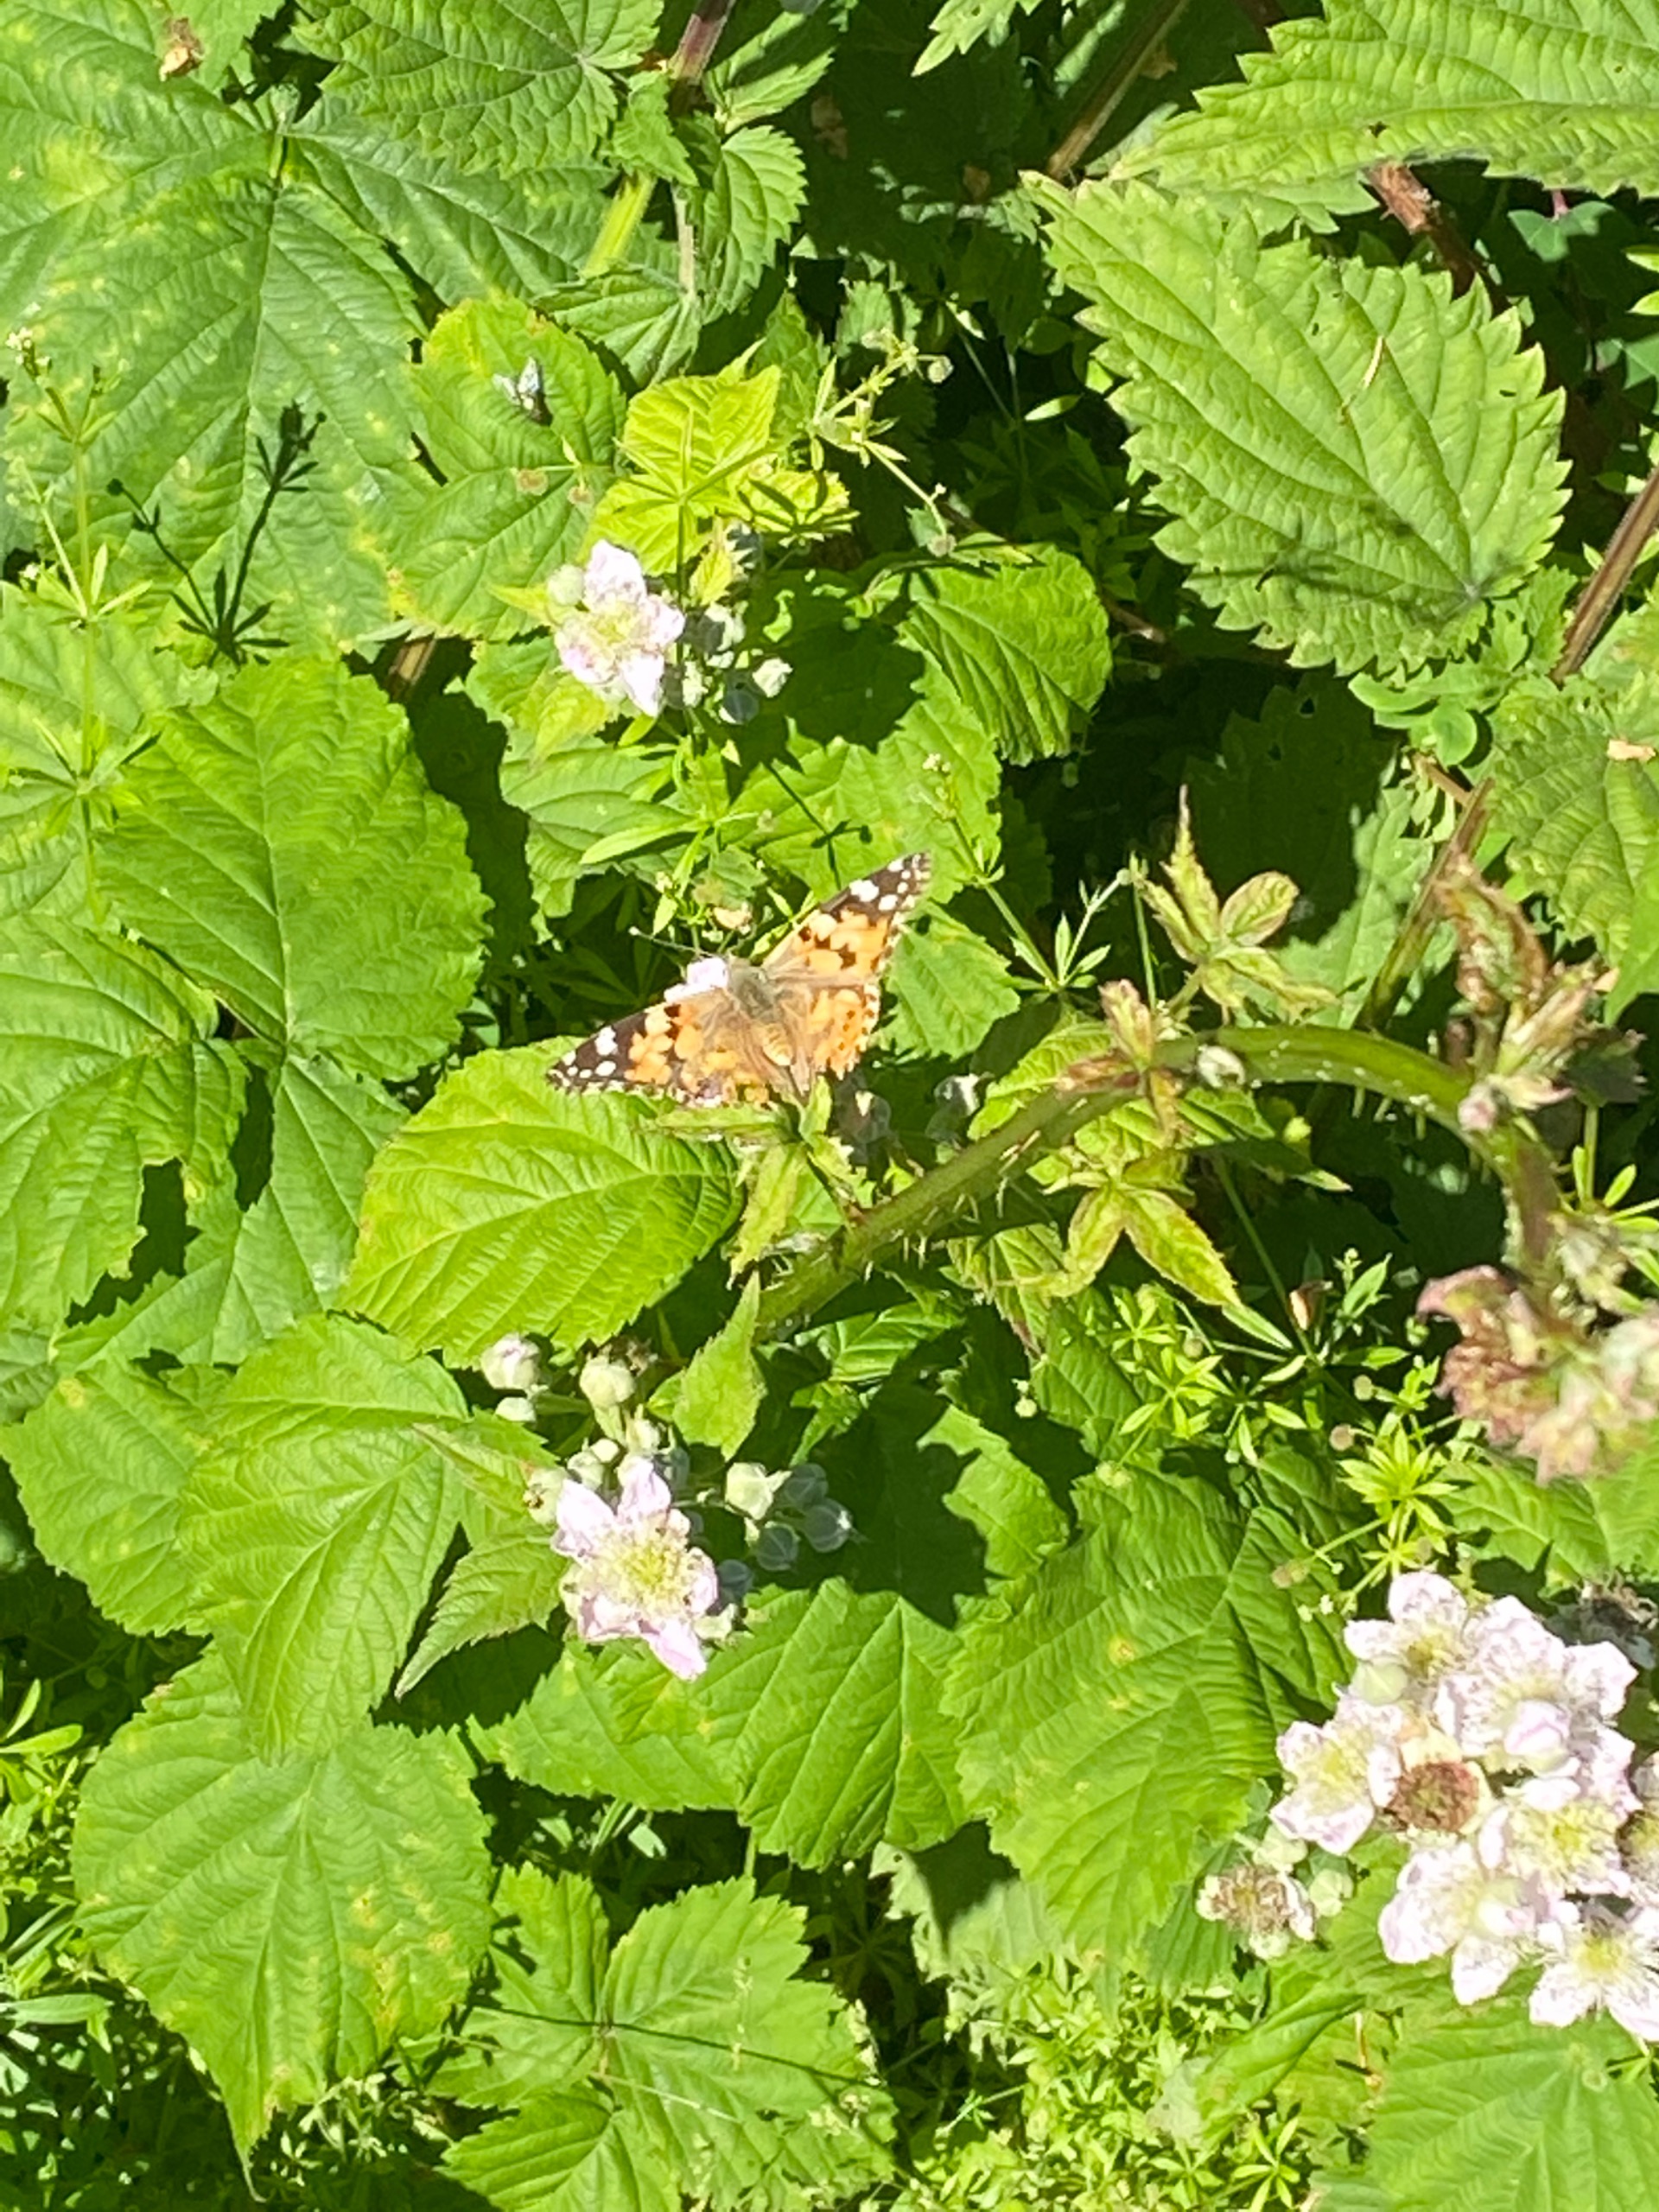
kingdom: Animalia
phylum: Arthropoda
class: Insecta
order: Lepidoptera
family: Nymphalidae
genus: Vanessa
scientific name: Vanessa cardui
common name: Tidselsommerfugl
